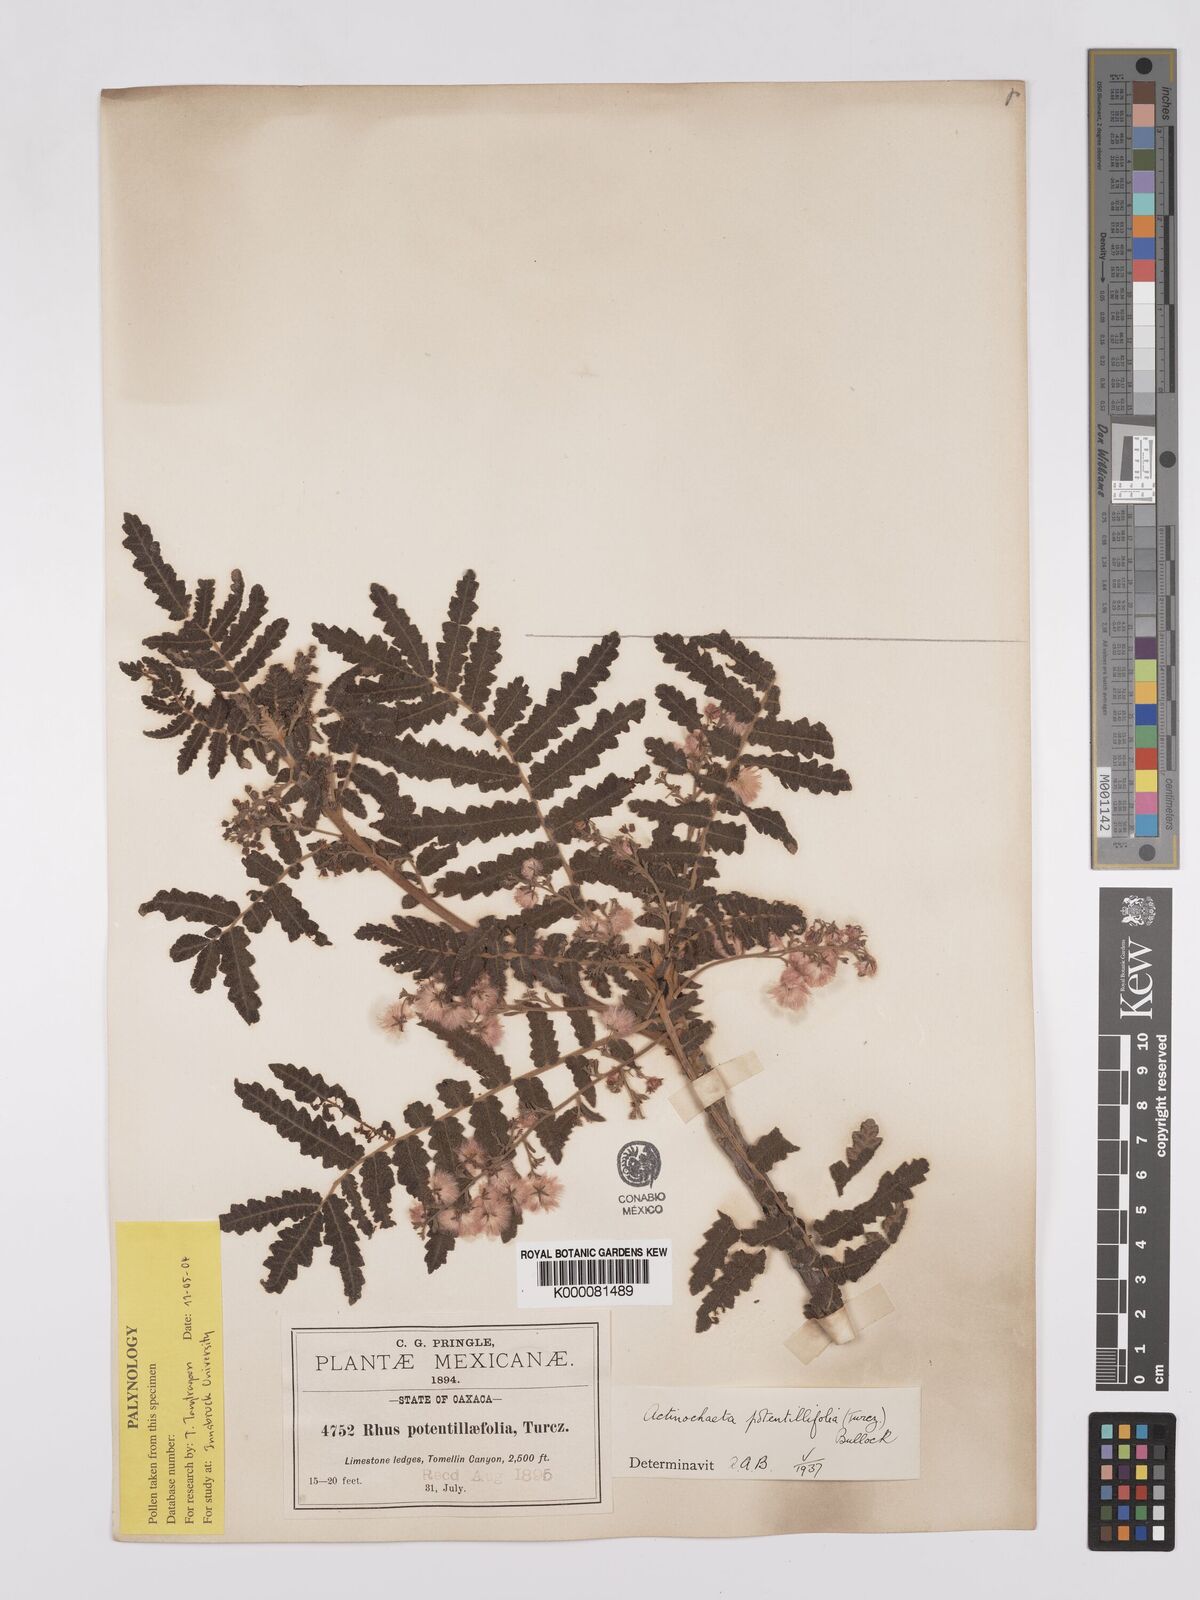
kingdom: Plantae
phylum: Tracheophyta
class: Magnoliopsida
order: Sapindales
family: Anacardiaceae
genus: Actinocheita
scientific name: Actinocheita filicina
